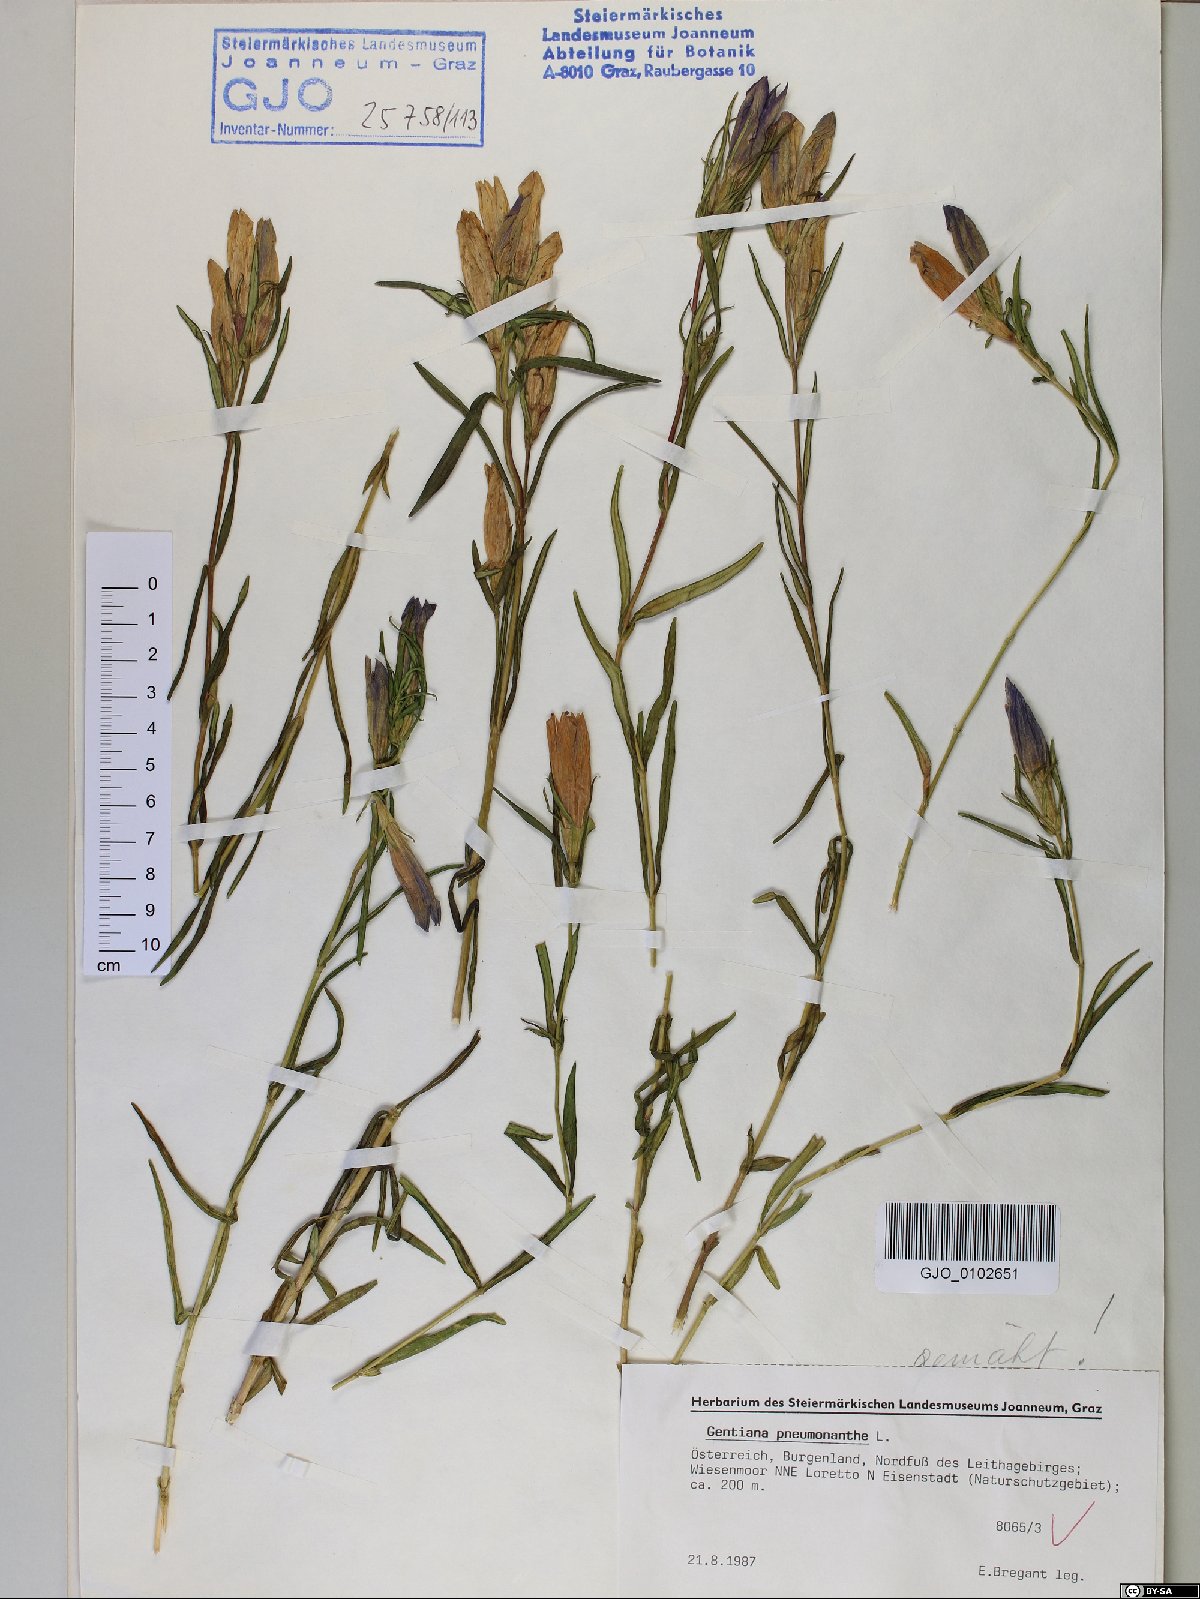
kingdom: Plantae
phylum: Tracheophyta
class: Magnoliopsida
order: Gentianales
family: Gentianaceae
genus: Gentiana
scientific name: Gentiana pneumonanthe
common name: Marsh gentian
